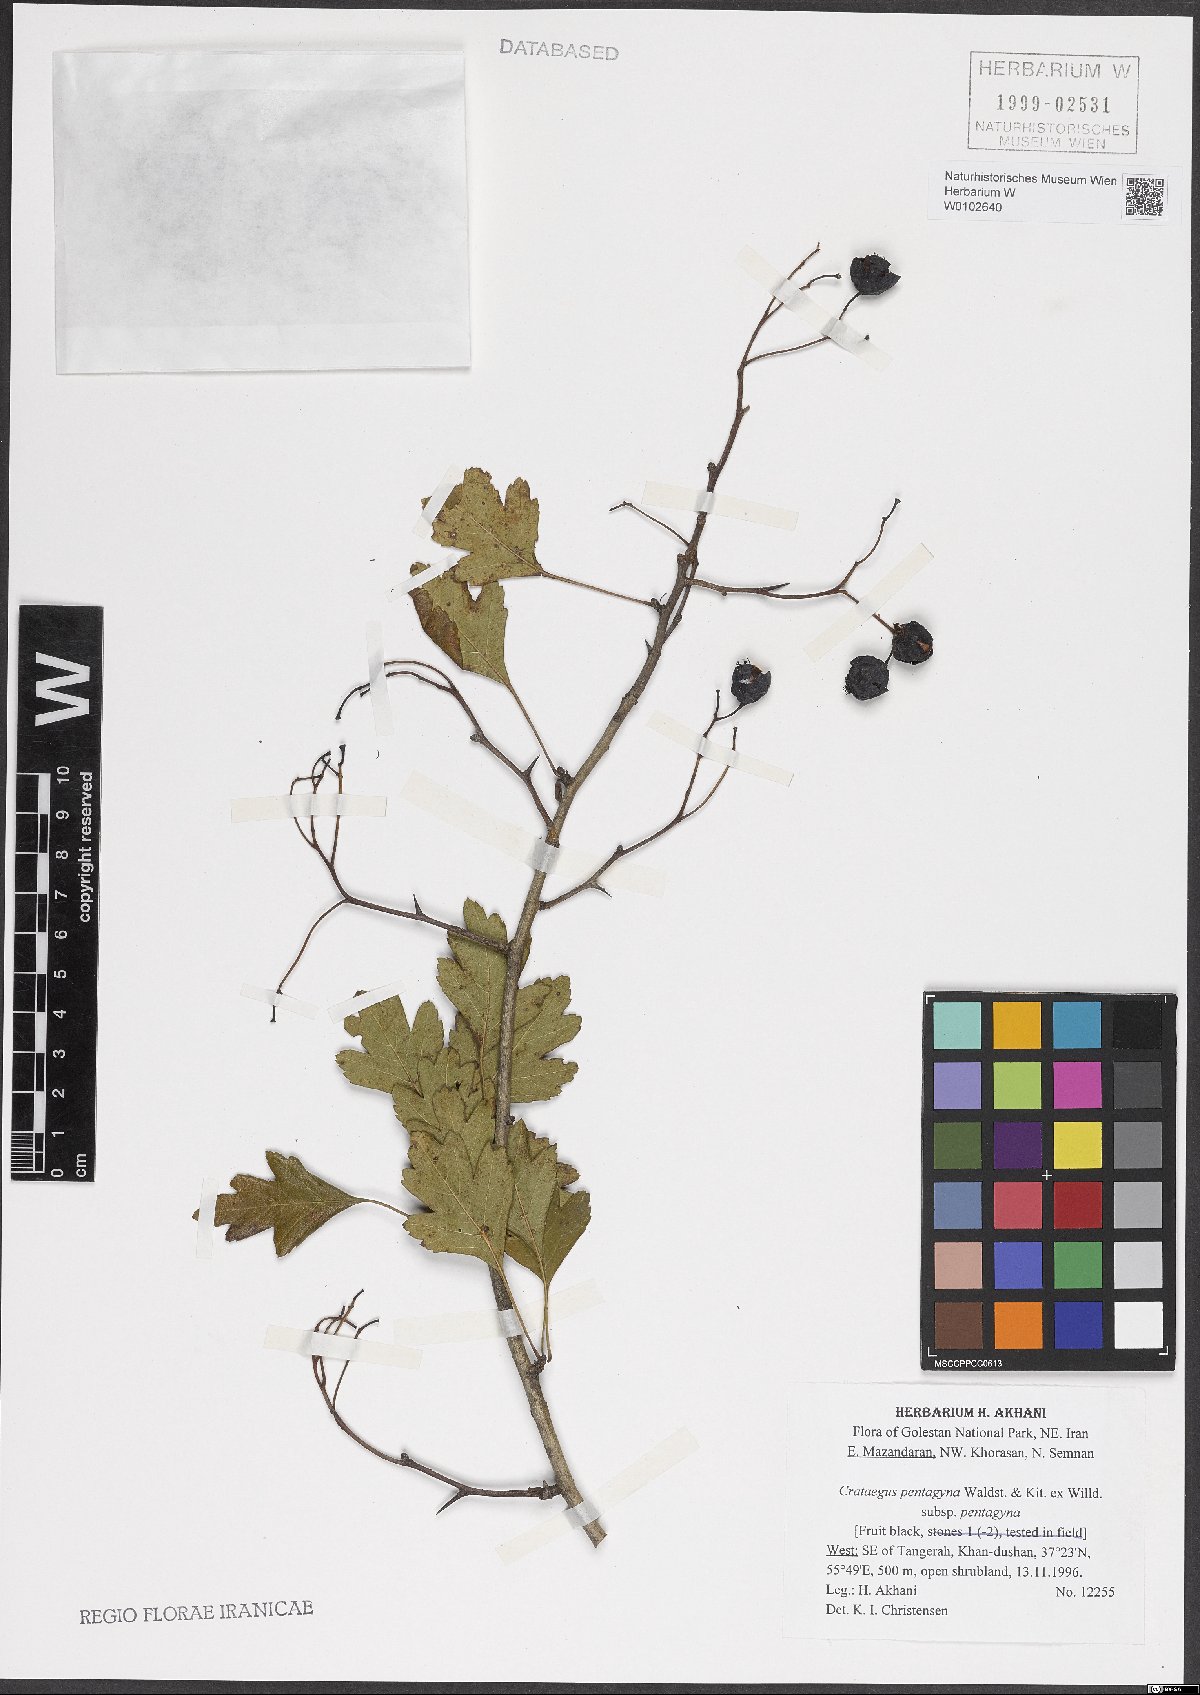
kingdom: Plantae
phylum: Tracheophyta
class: Magnoliopsida
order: Rosales
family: Rosaceae
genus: Crataegus
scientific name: Crataegus pentagyna
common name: Small-flowered black hawthorn
